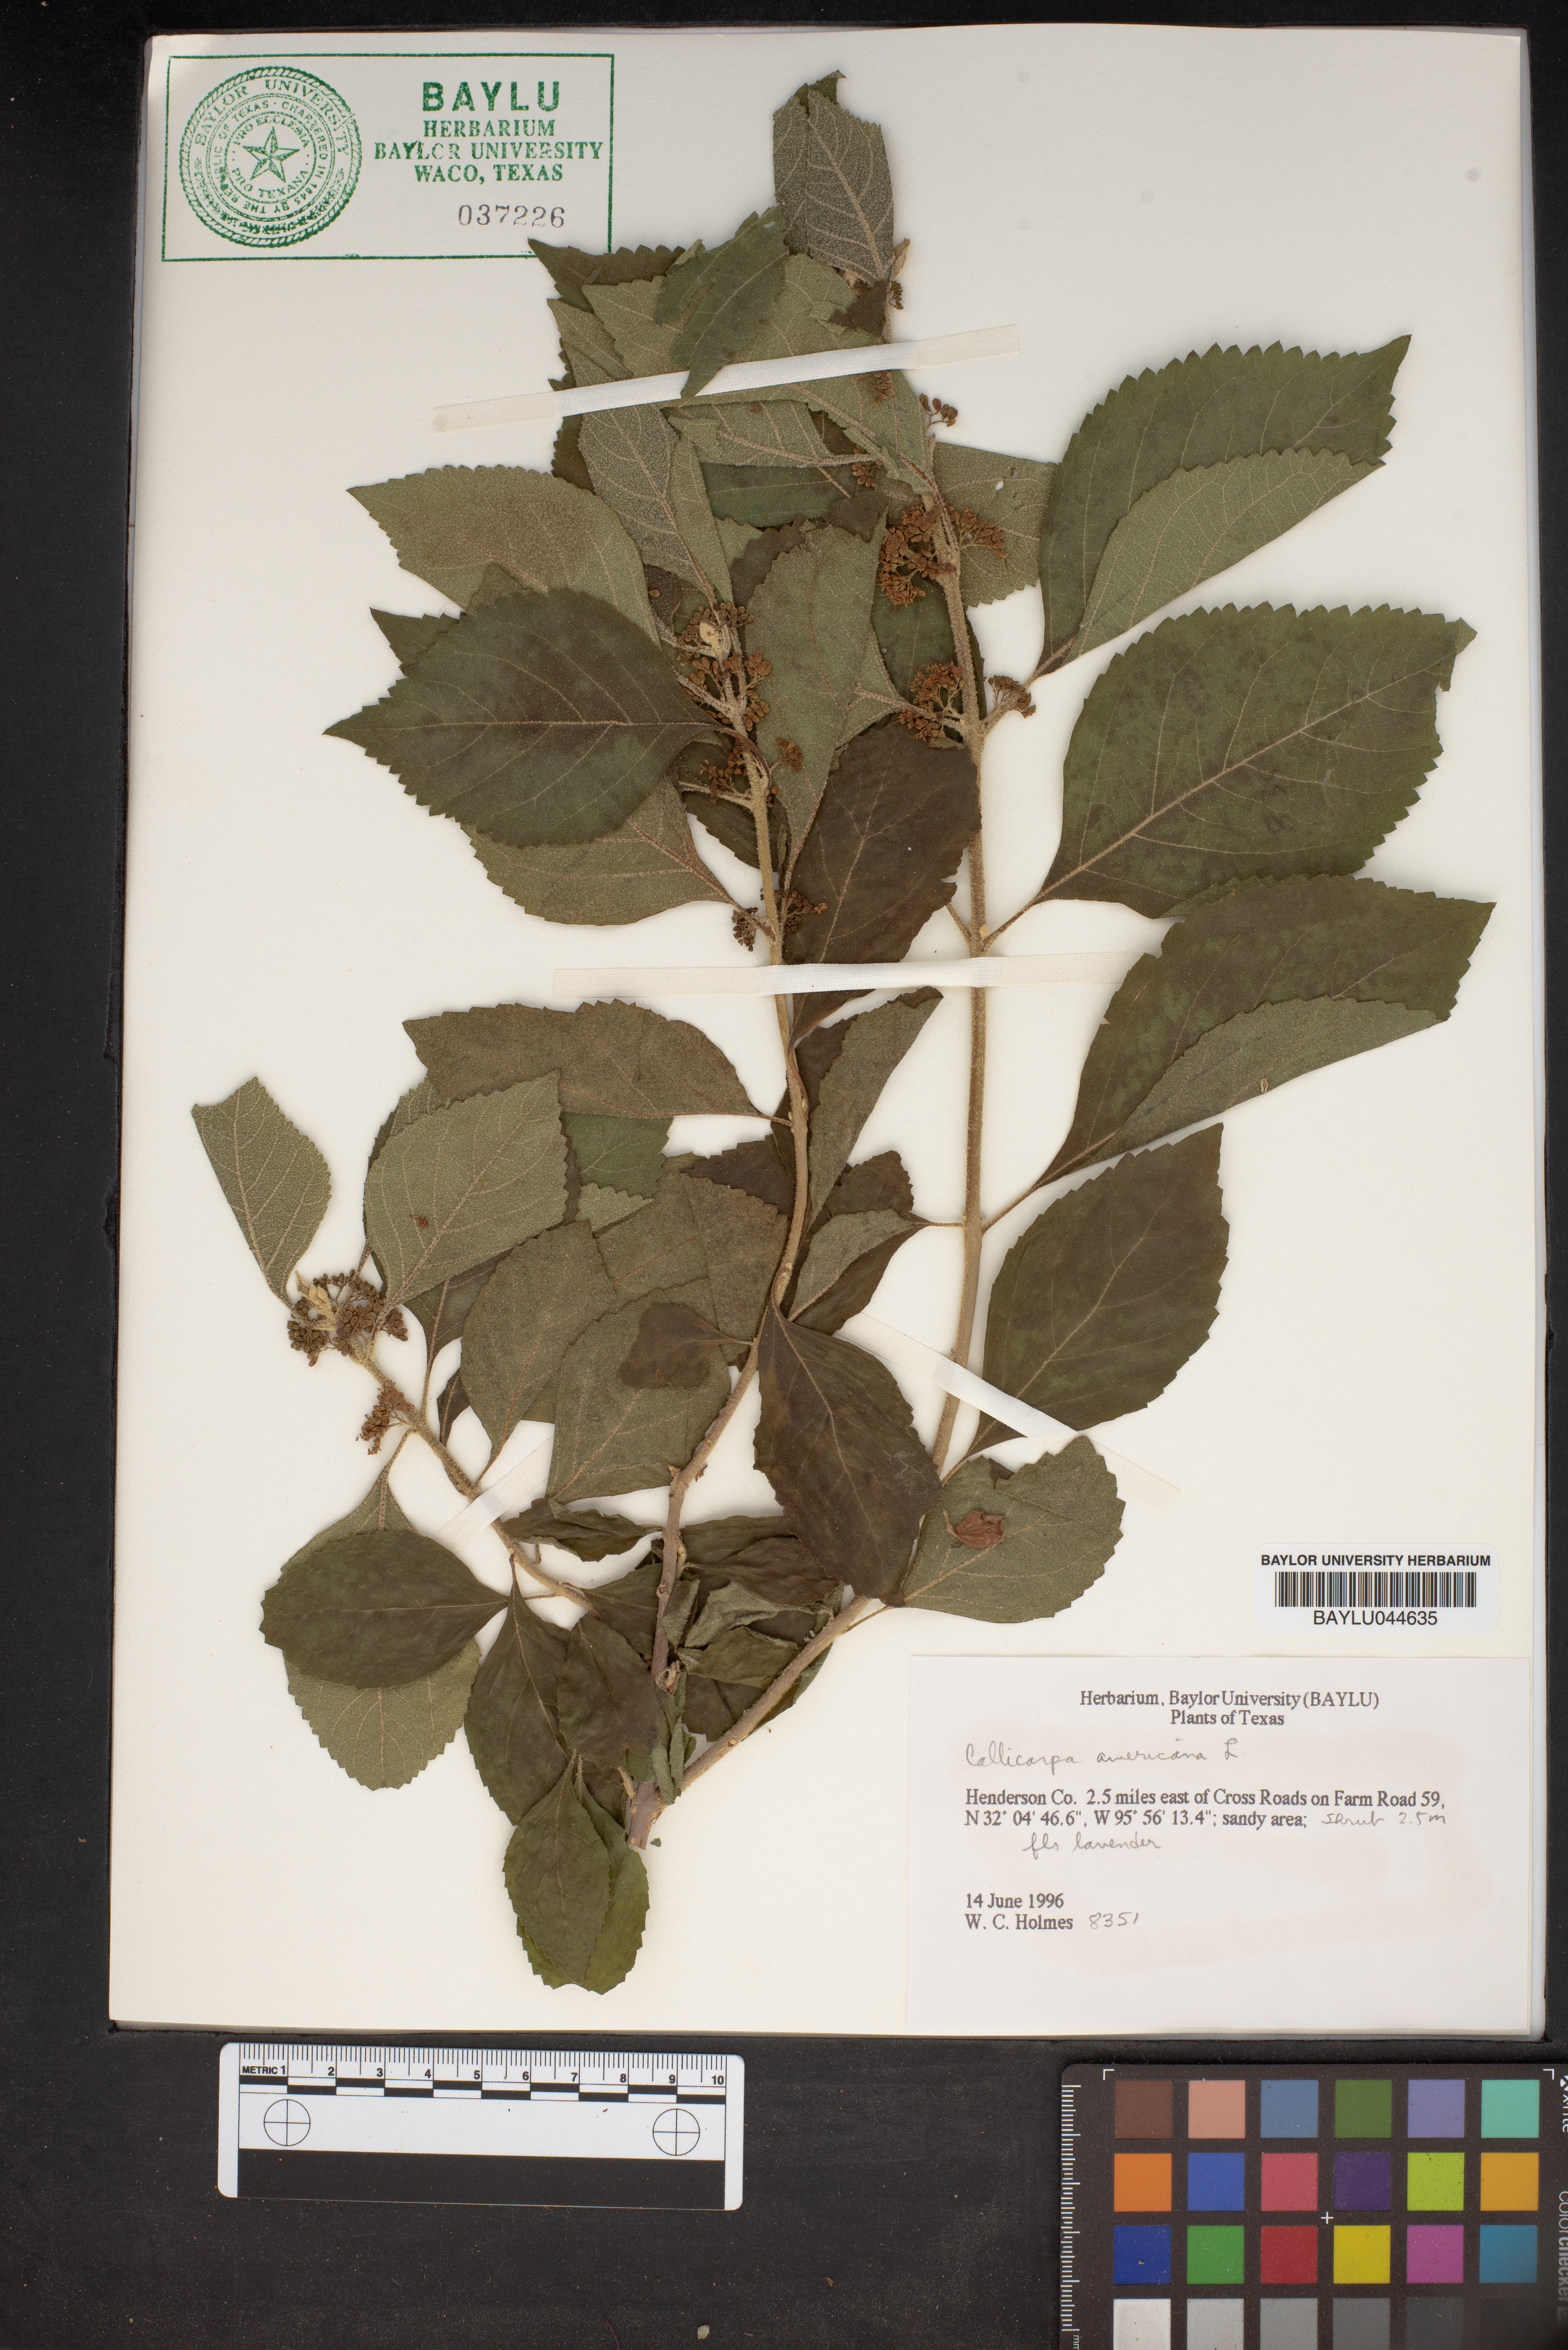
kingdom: Plantae
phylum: Tracheophyta
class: Magnoliopsida
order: Lamiales
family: Lamiaceae
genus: Callicarpa
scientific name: Callicarpa americana
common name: American beautyberry
